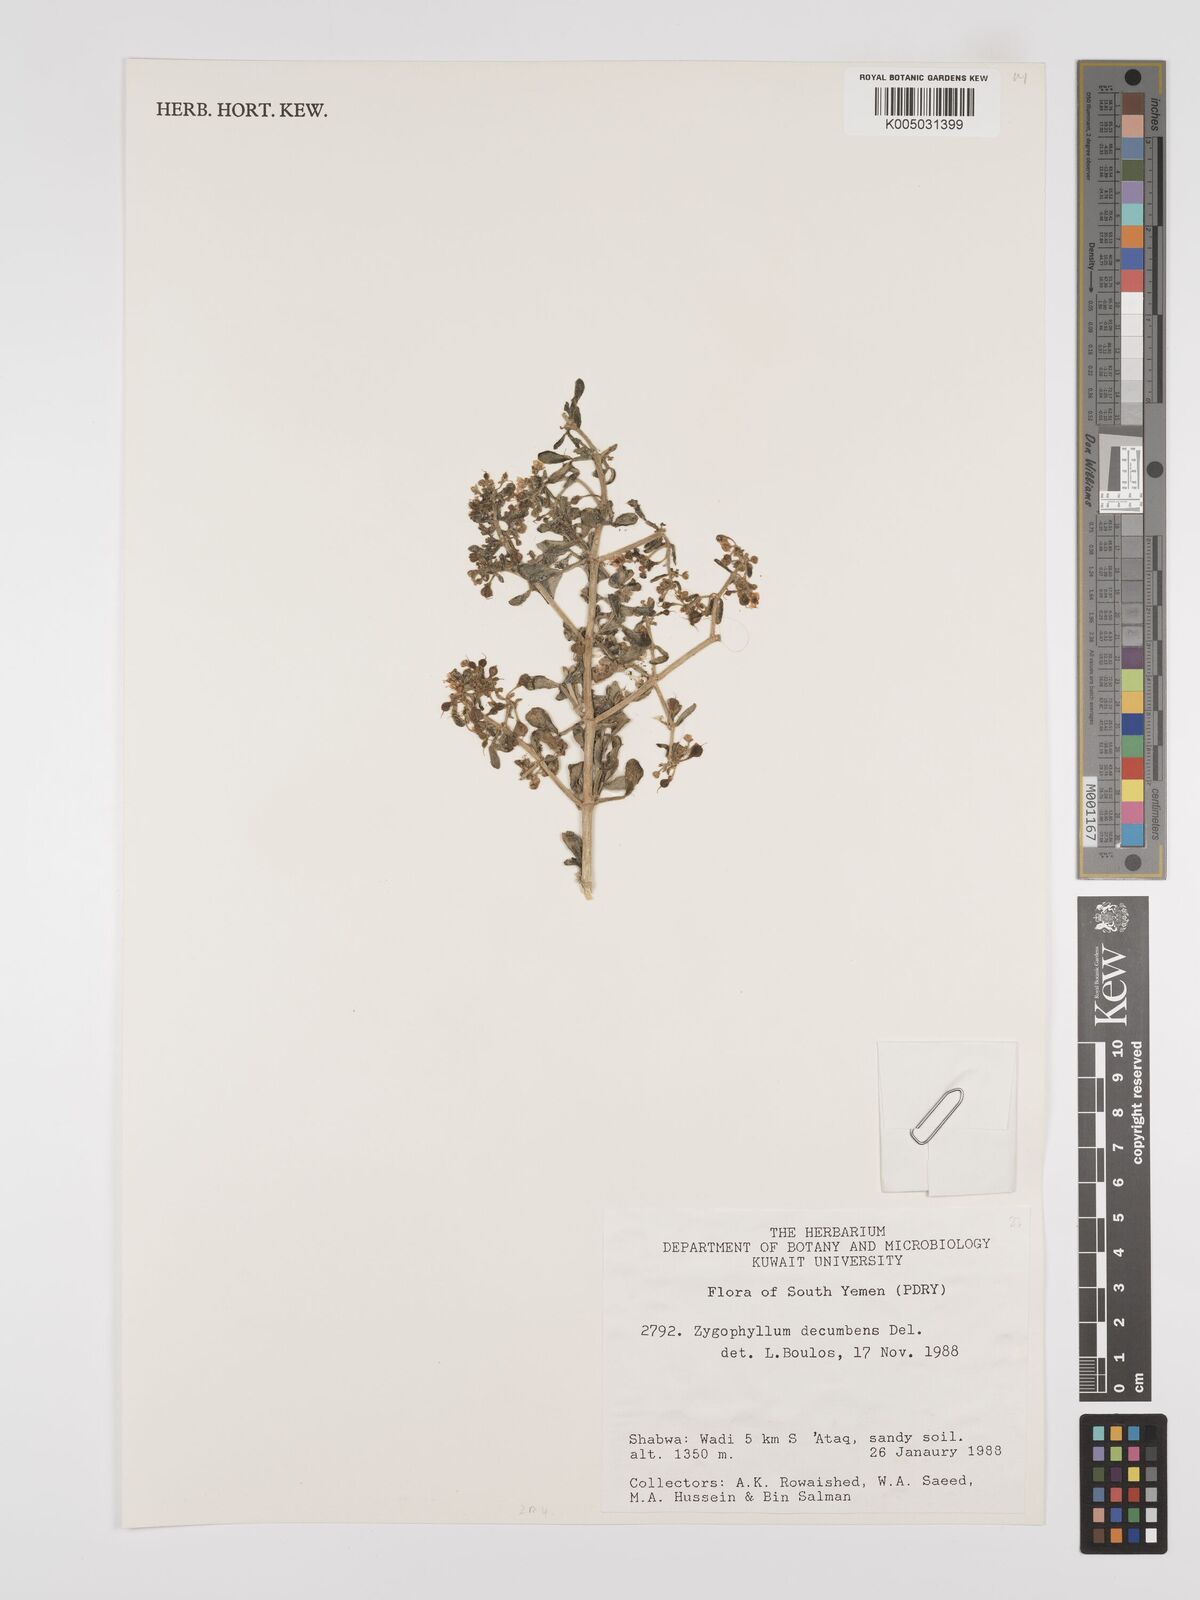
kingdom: Plantae
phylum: Tracheophyta
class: Magnoliopsida
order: Zygophyllales
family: Zygophyllaceae
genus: Tetraena
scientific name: Tetraena decumbens
